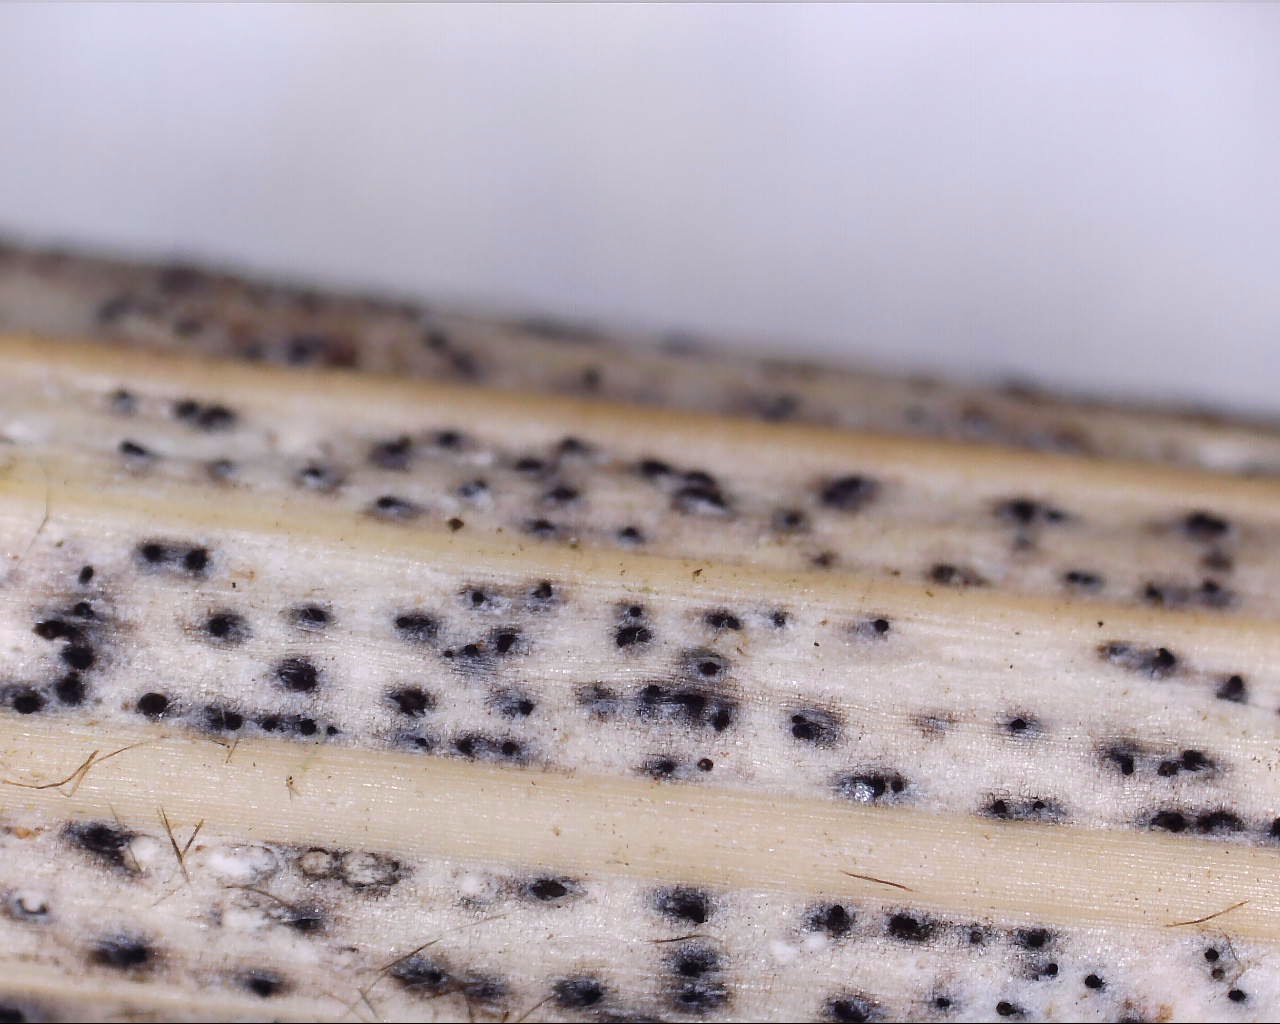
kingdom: Fungi
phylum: Ascomycota
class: Sordariomycetes
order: Diaporthales
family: Diaporthaceae
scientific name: Diaporthaceae
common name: kulknippefamilien
